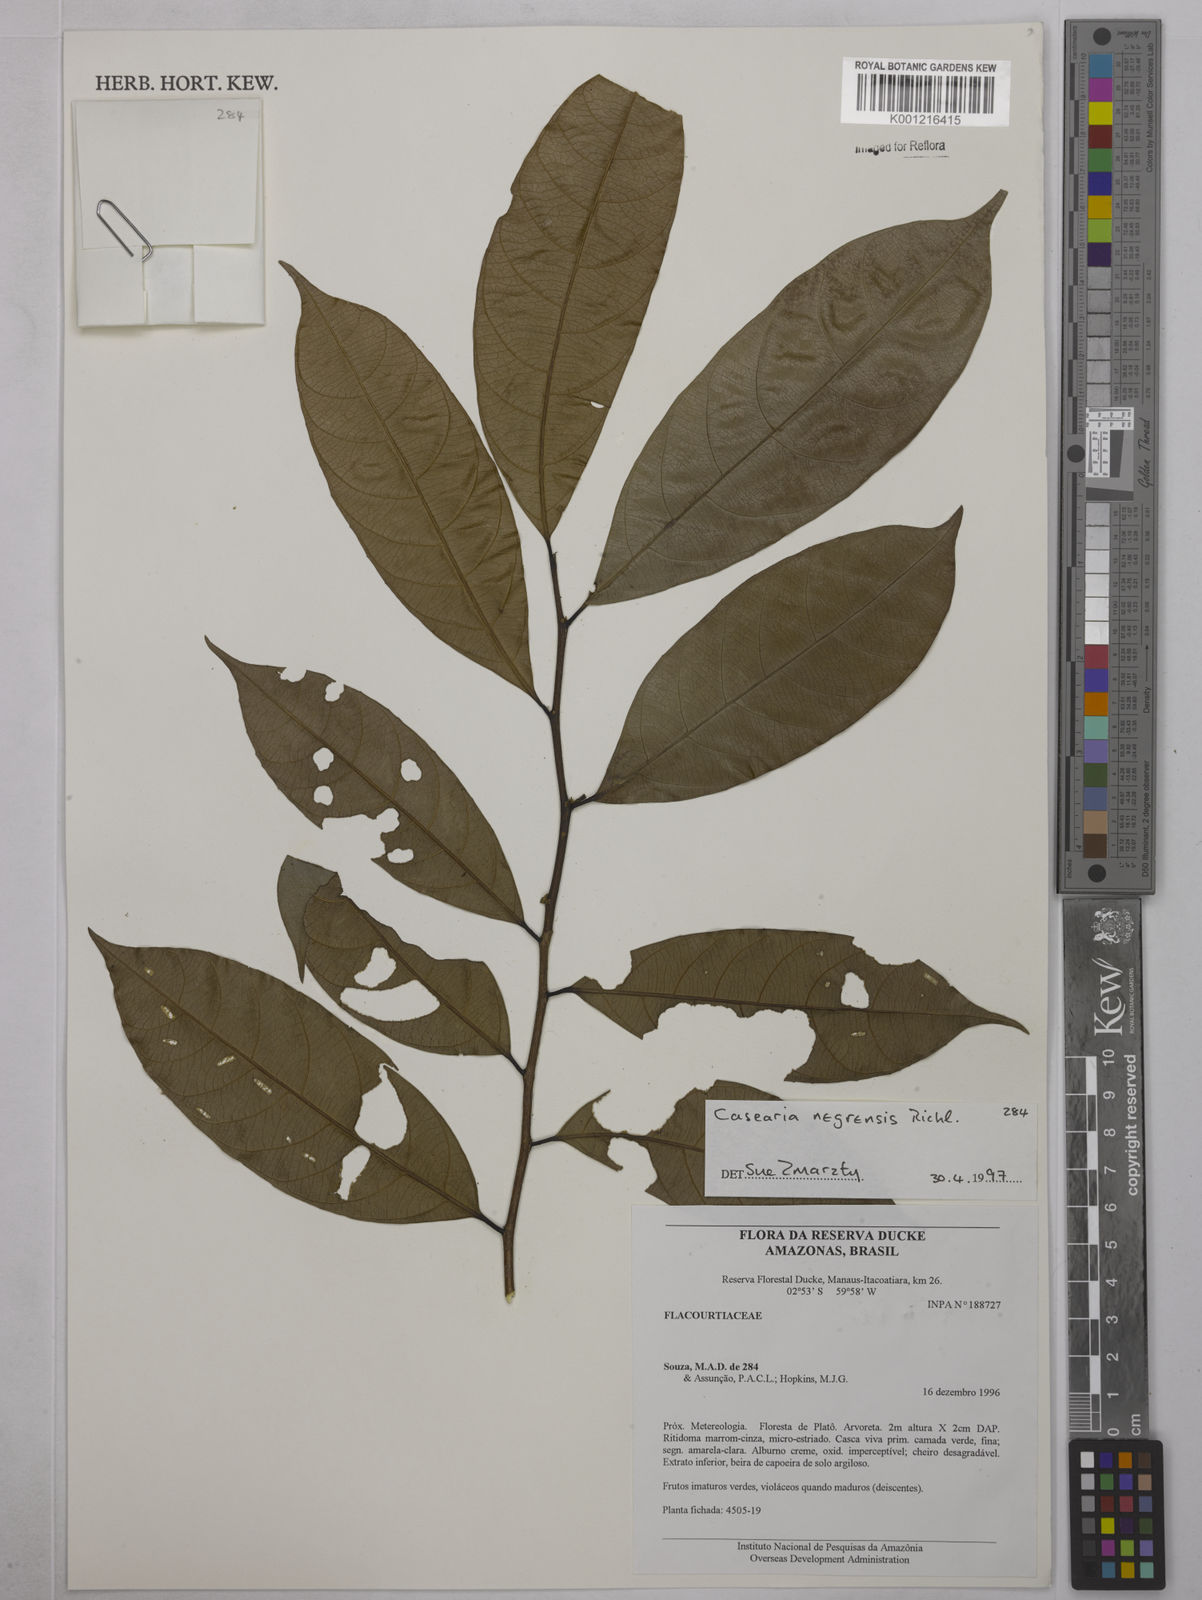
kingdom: Plantae
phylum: Tracheophyta
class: Magnoliopsida
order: Malpighiales
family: Salicaceae
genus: Casearia
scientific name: Casearia negrensis
